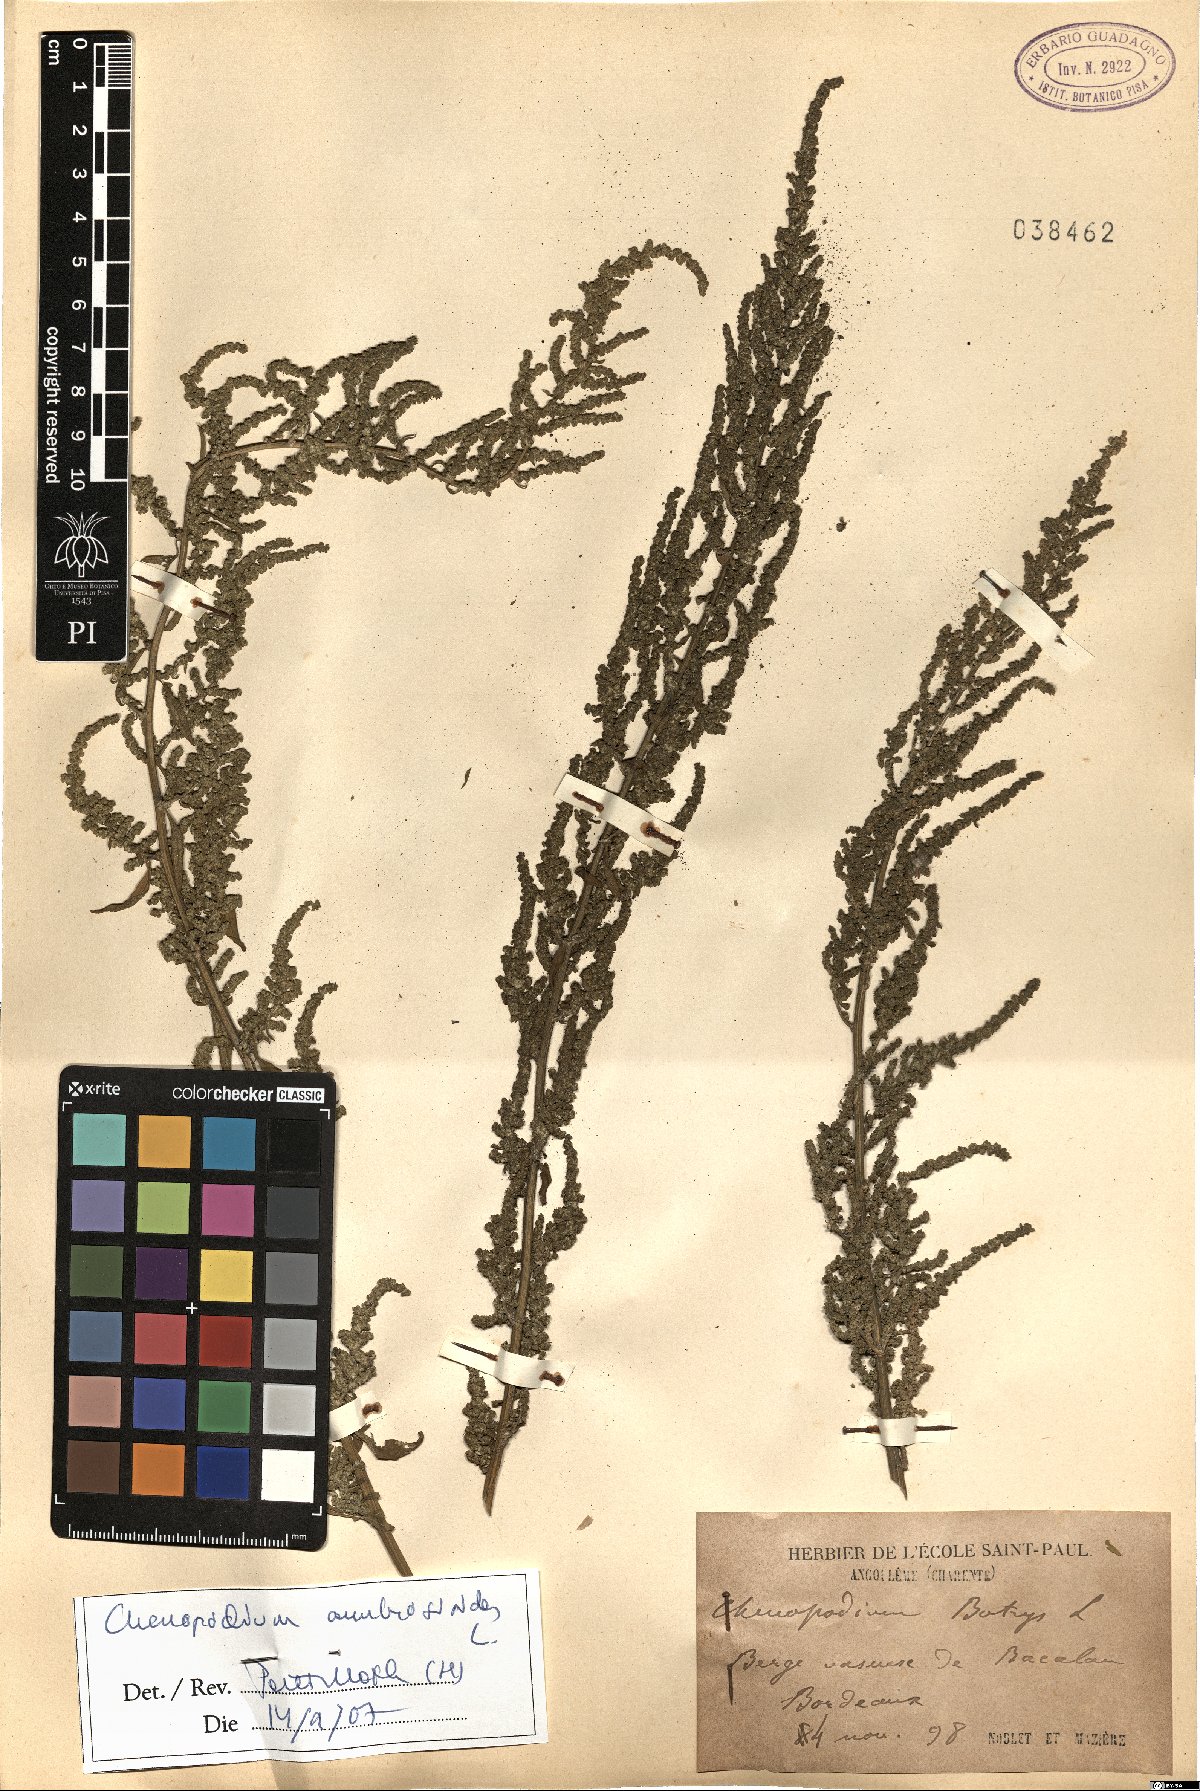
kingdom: Plantae
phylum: Tracheophyta
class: Magnoliopsida
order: Caryophyllales
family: Amaranthaceae
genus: Dysphania
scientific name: Dysphania ambrosioides
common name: Wormseed
